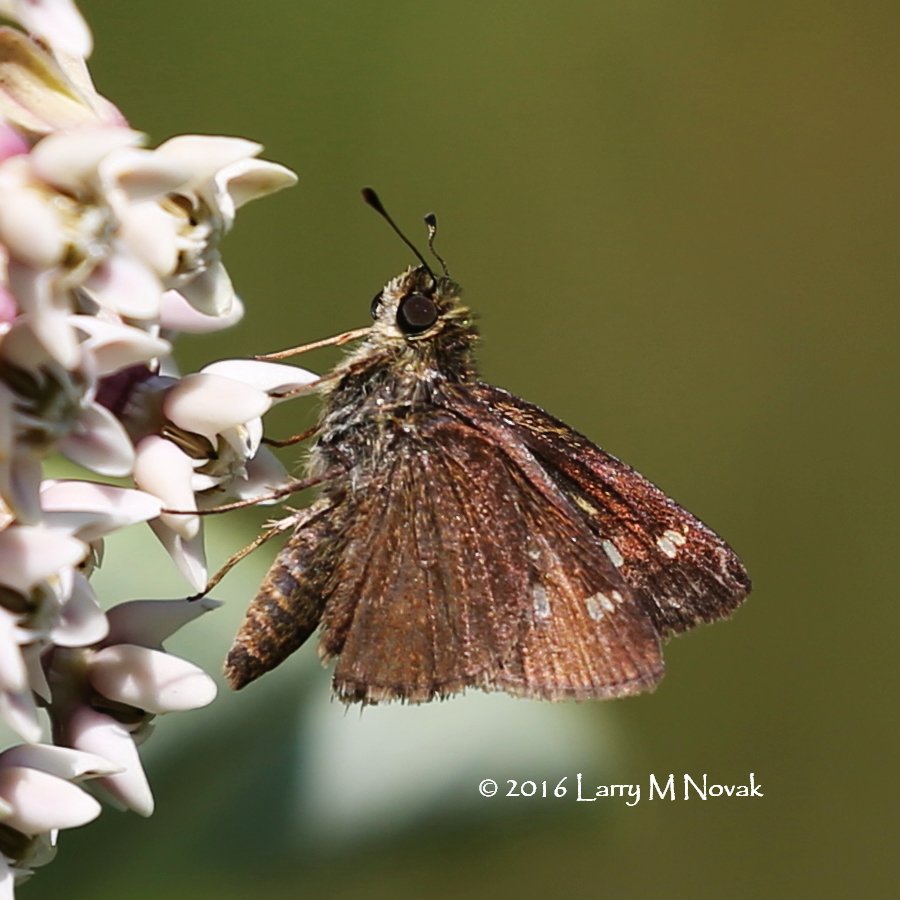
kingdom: Animalia
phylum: Arthropoda
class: Insecta
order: Lepidoptera
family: Hesperiidae
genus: Vernia
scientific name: Vernia verna
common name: Little Glassywing
